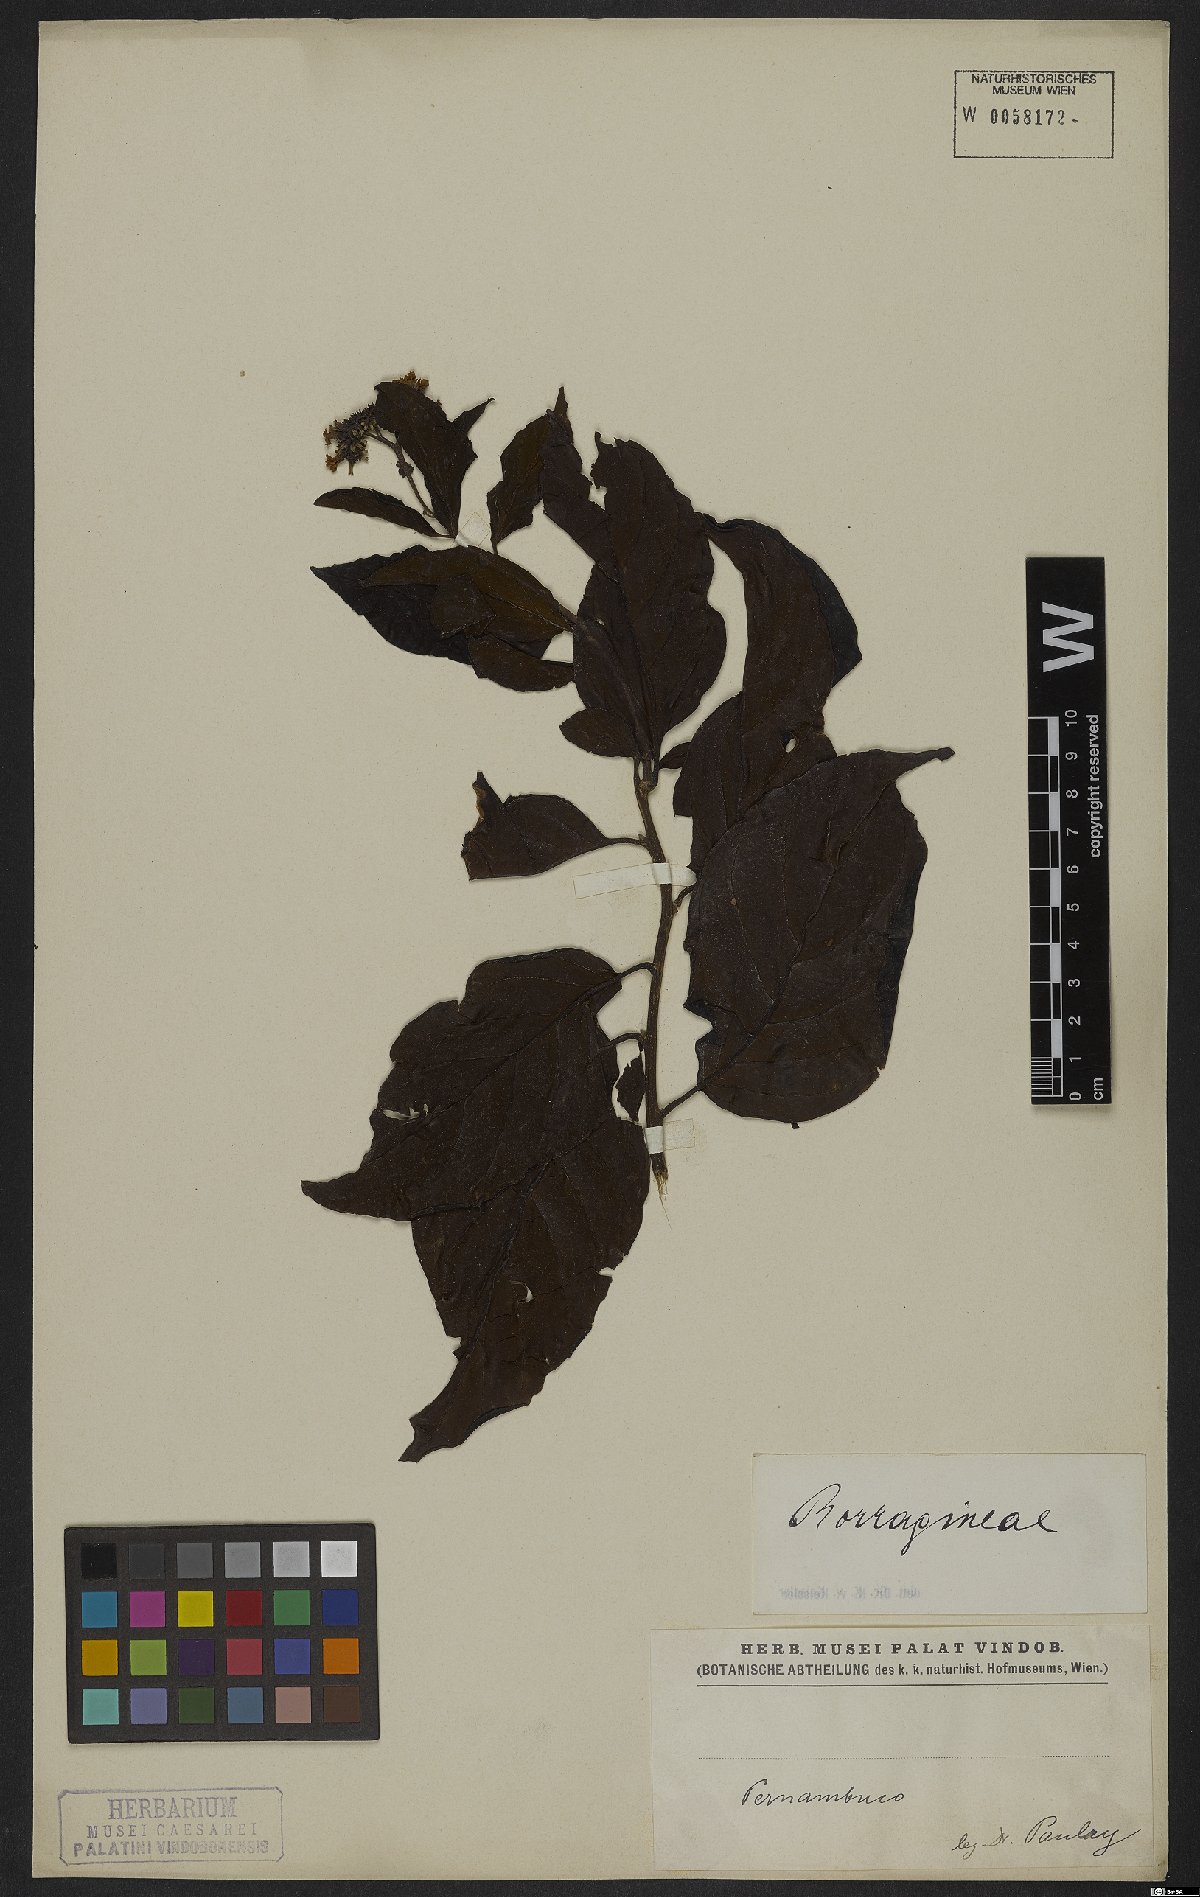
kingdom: Plantae
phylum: Tracheophyta
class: Magnoliopsida
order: Boraginales
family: Heliotropiaceae
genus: Heliotropium
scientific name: Heliotropium verdcourtii
